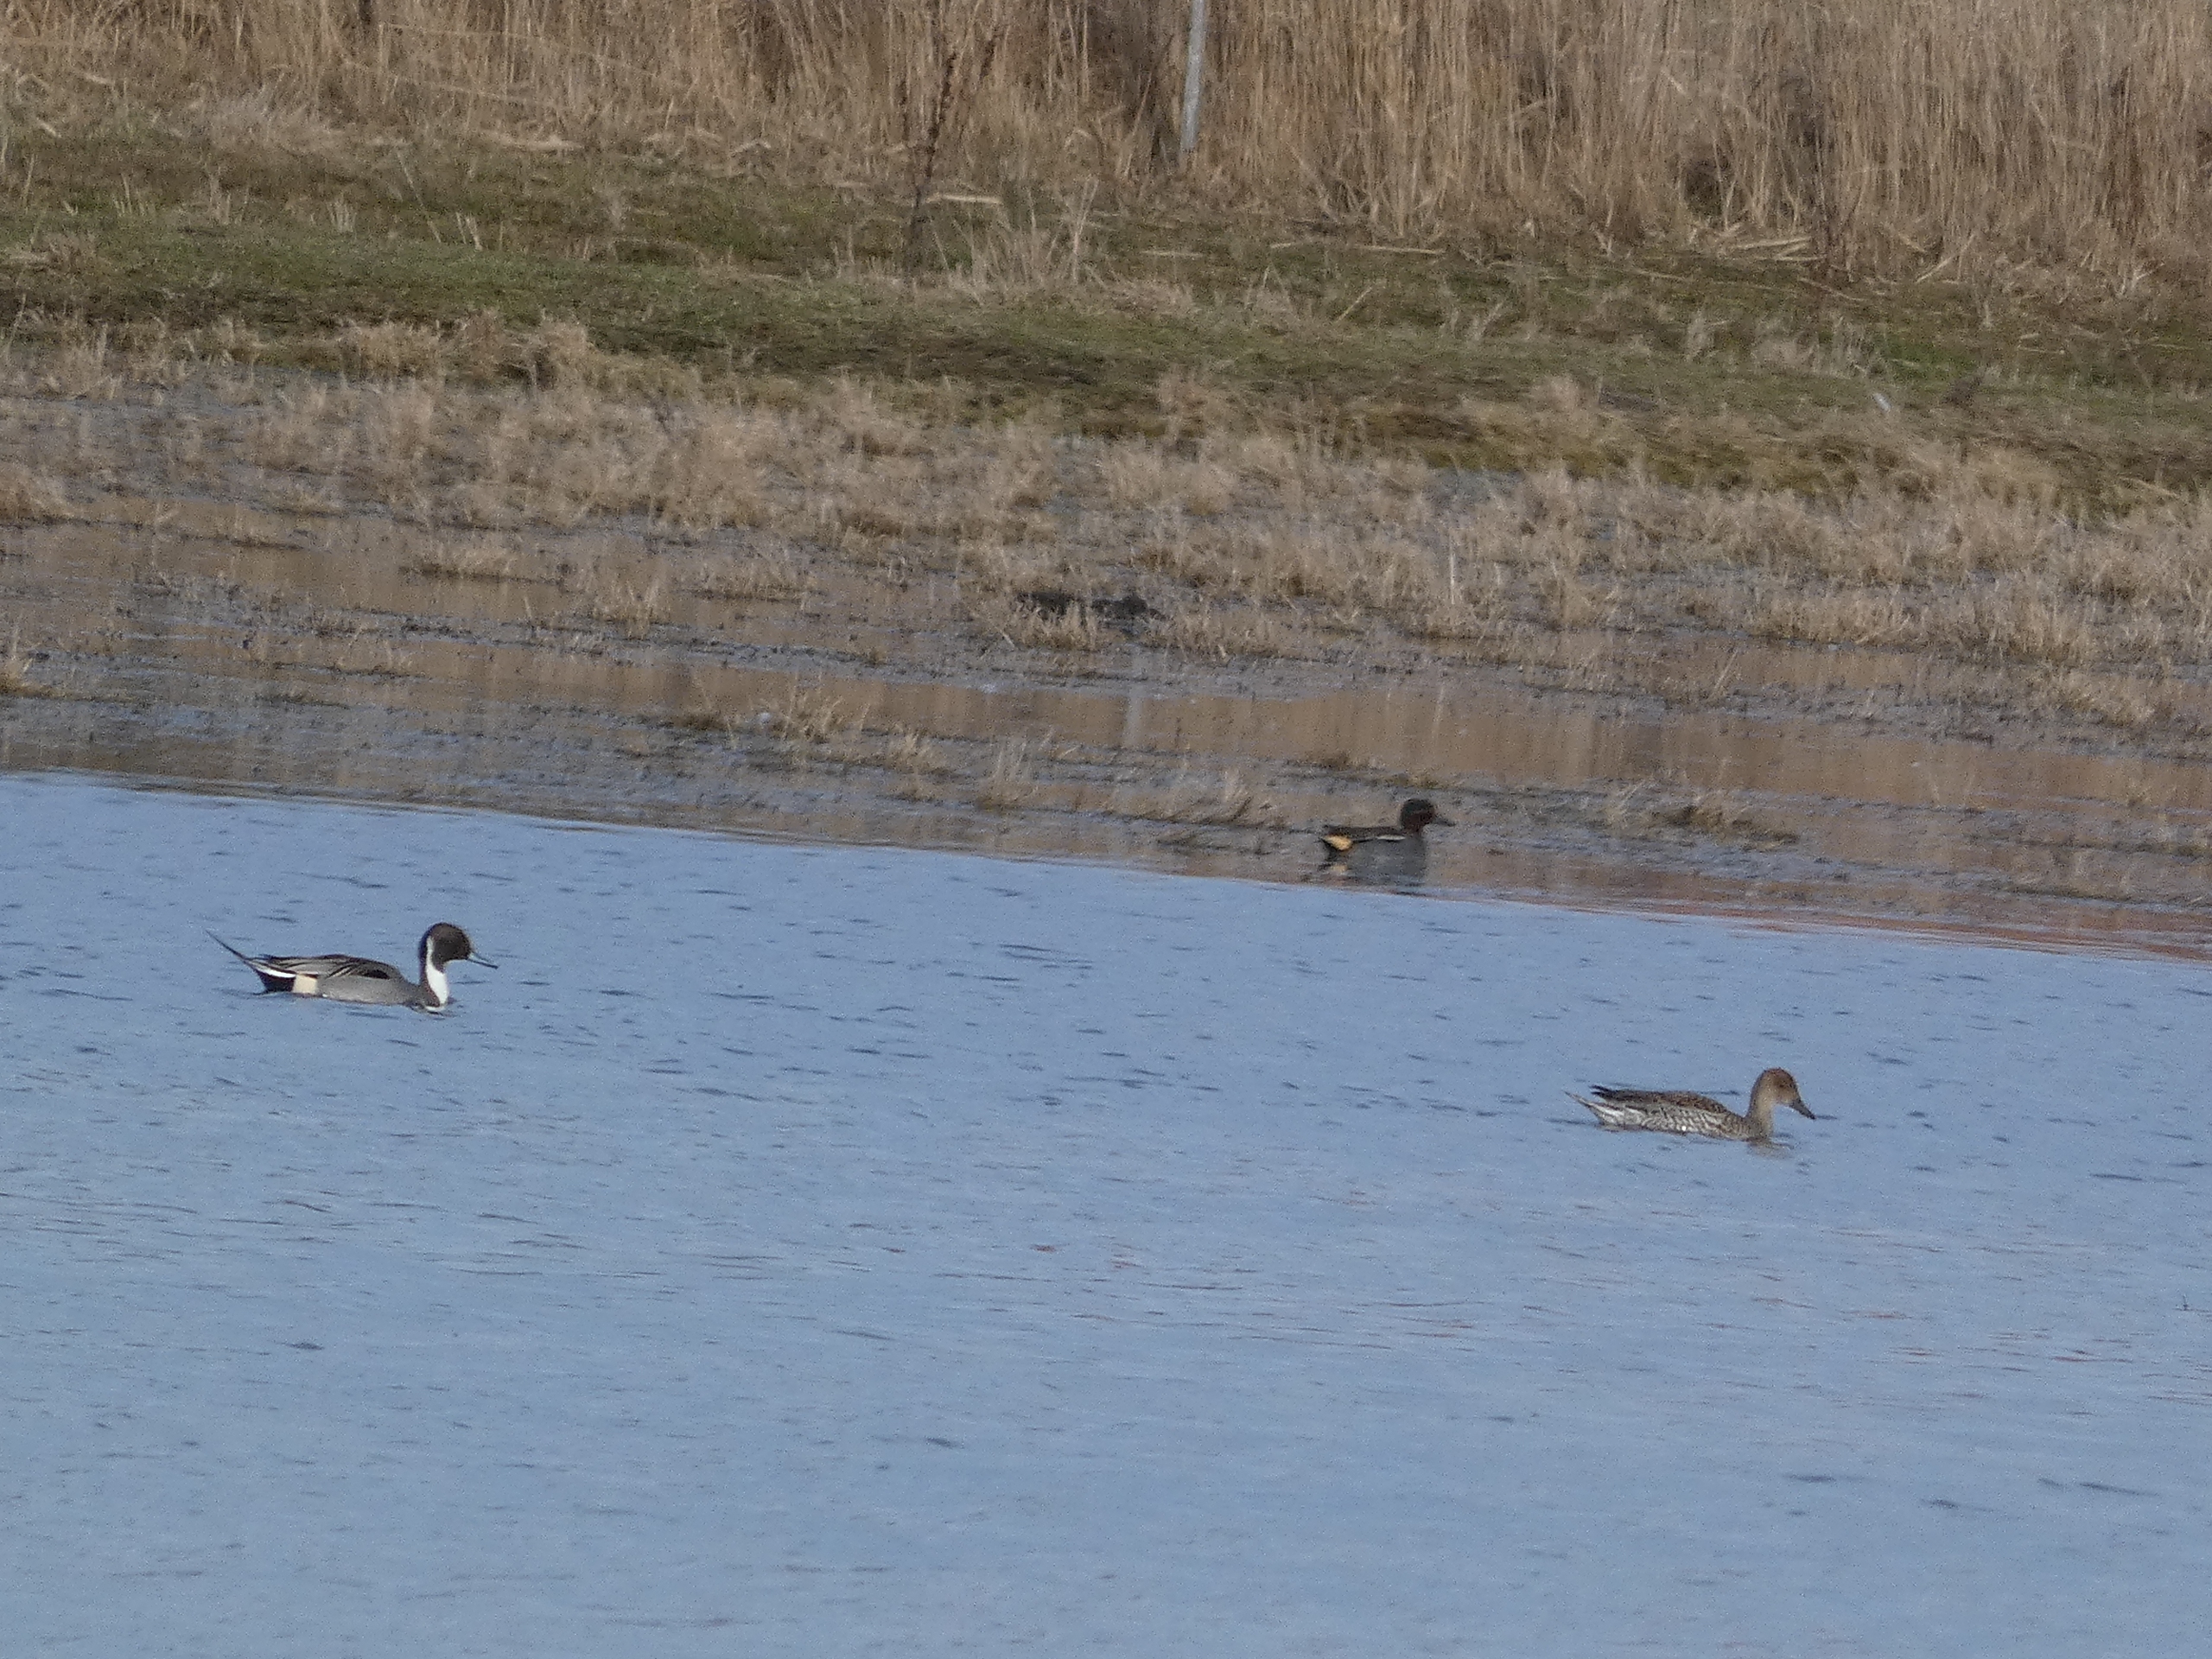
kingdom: Animalia
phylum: Chordata
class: Aves
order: Anseriformes
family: Anatidae
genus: Anas
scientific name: Anas crecca
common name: Krikand
